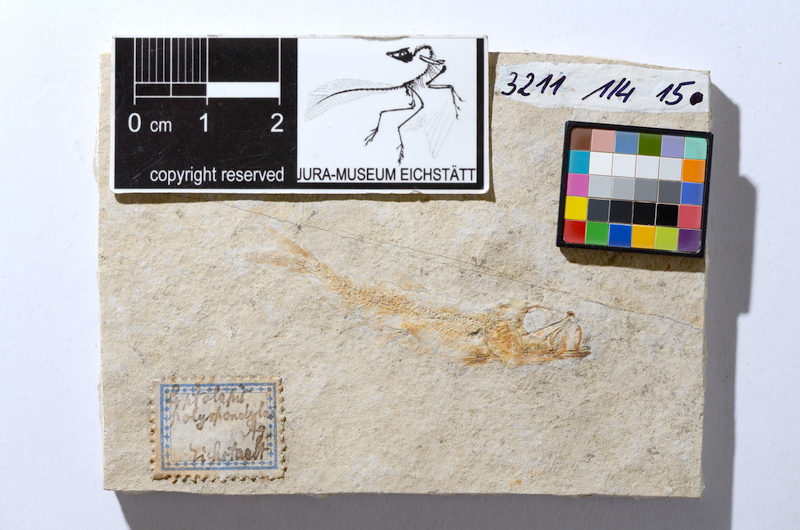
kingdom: Animalia
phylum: Chordata
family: Ascalaboidae
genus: Tharsis
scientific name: Tharsis dubius
